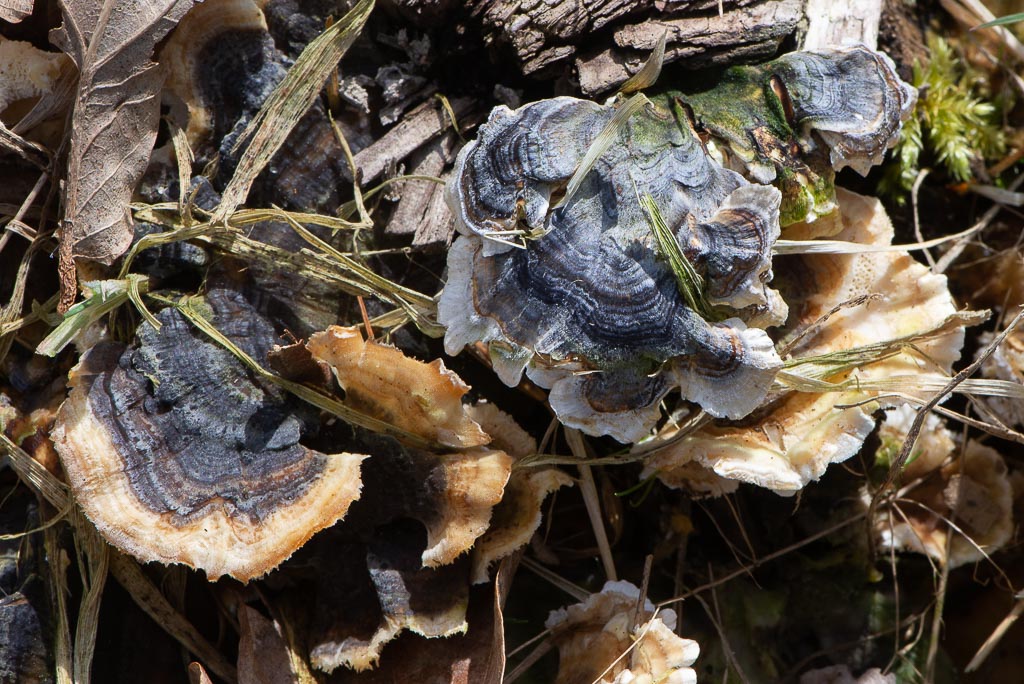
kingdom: Fungi
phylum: Basidiomycota
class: Agaricomycetes
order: Polyporales
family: Polyporaceae
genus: Trametes
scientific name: Trametes versicolor
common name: broget læderporesvamp
